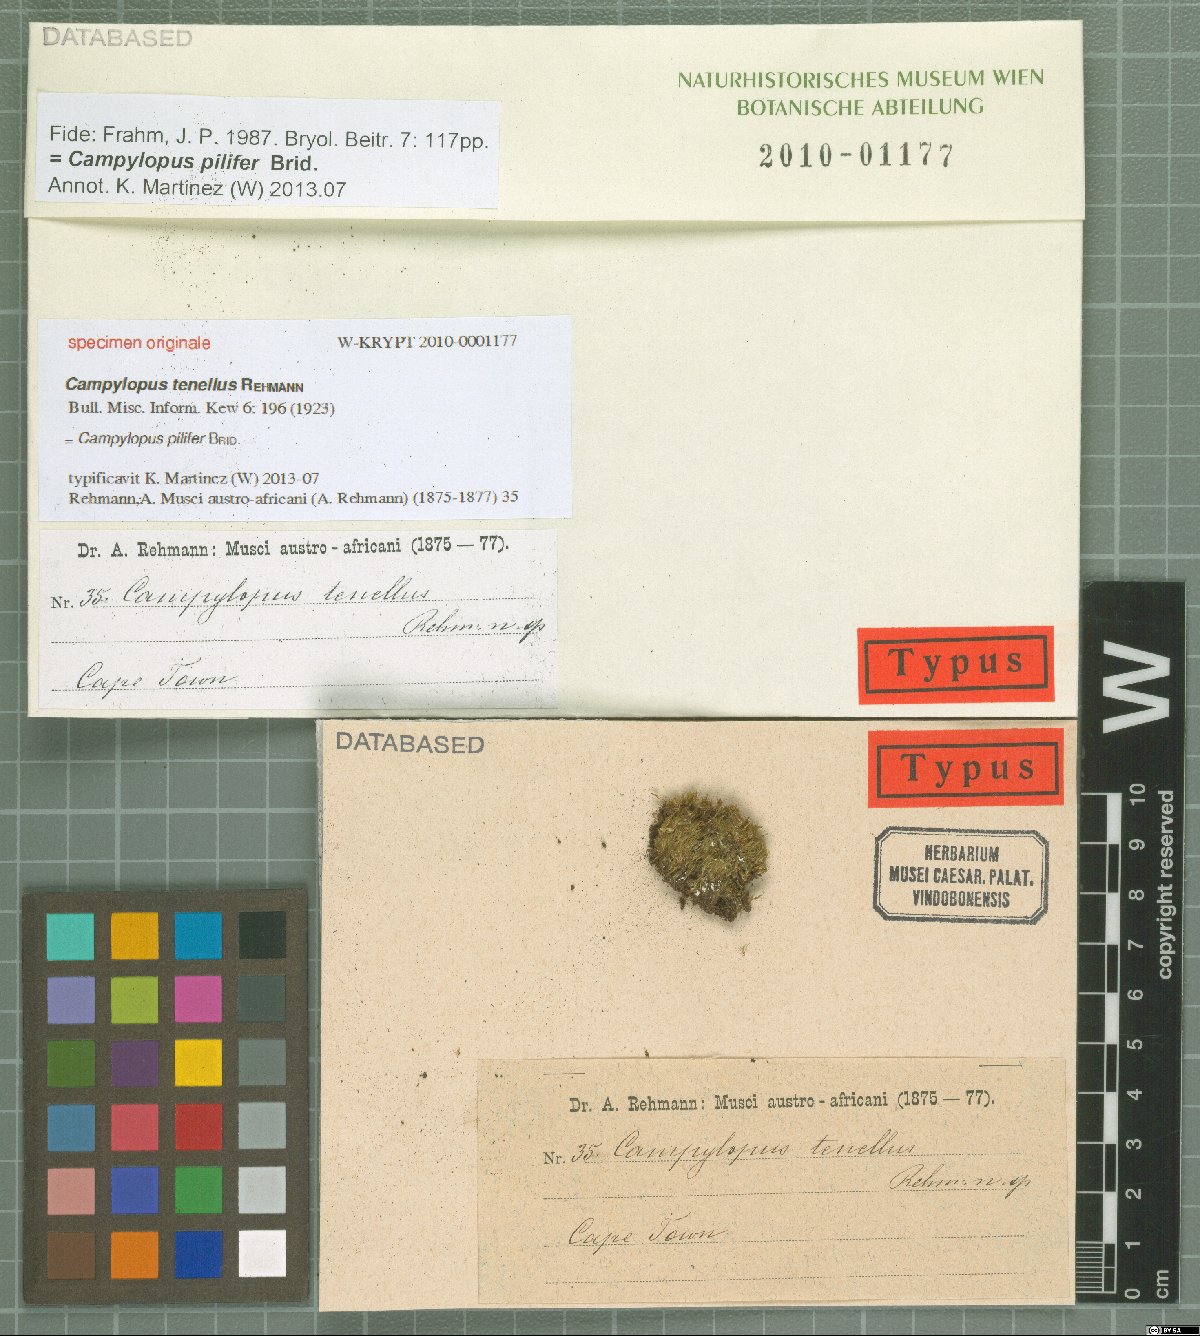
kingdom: Protozoa
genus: Campylopus
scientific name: Campylopus
